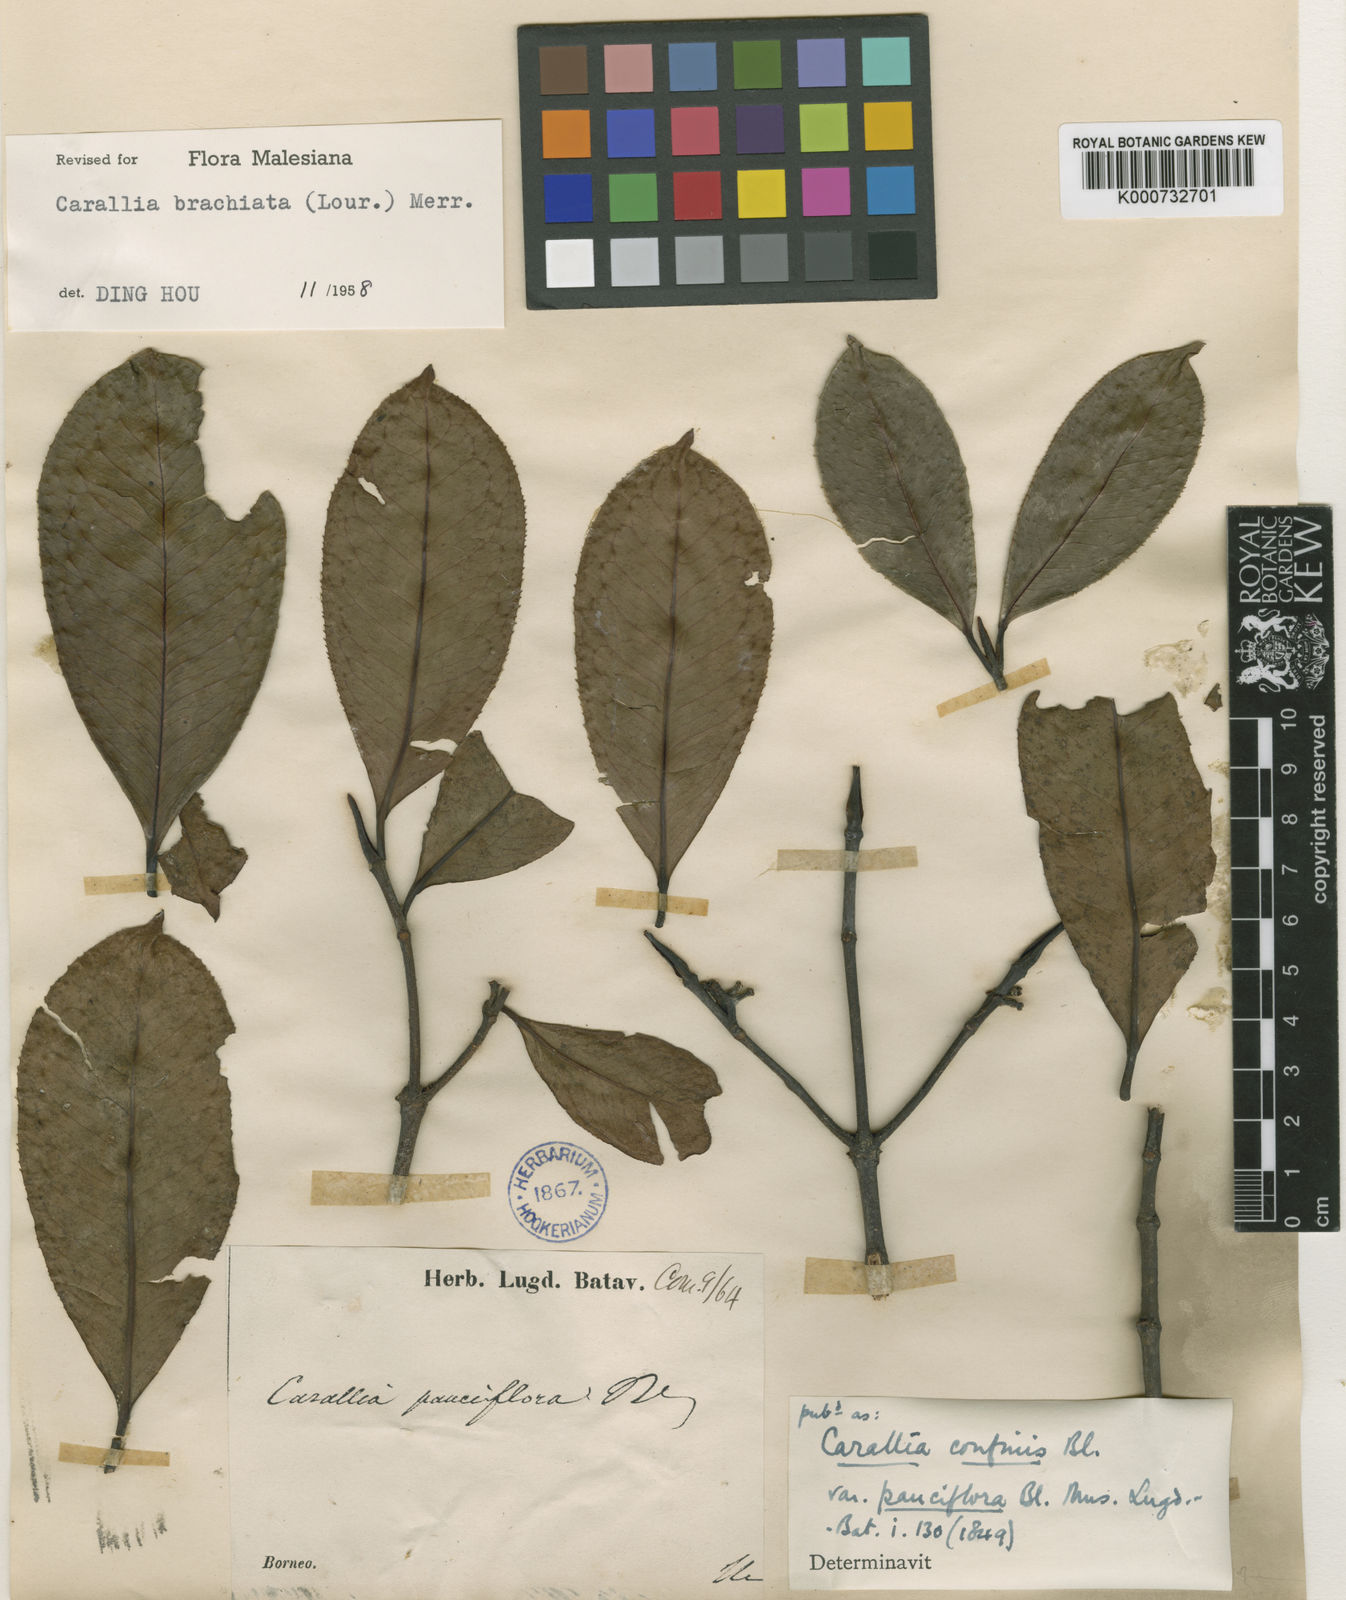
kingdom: Plantae
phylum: Tracheophyta
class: Magnoliopsida
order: Malpighiales
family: Rhizophoraceae
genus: Carallia
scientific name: Carallia brachiata
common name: Carallawood
